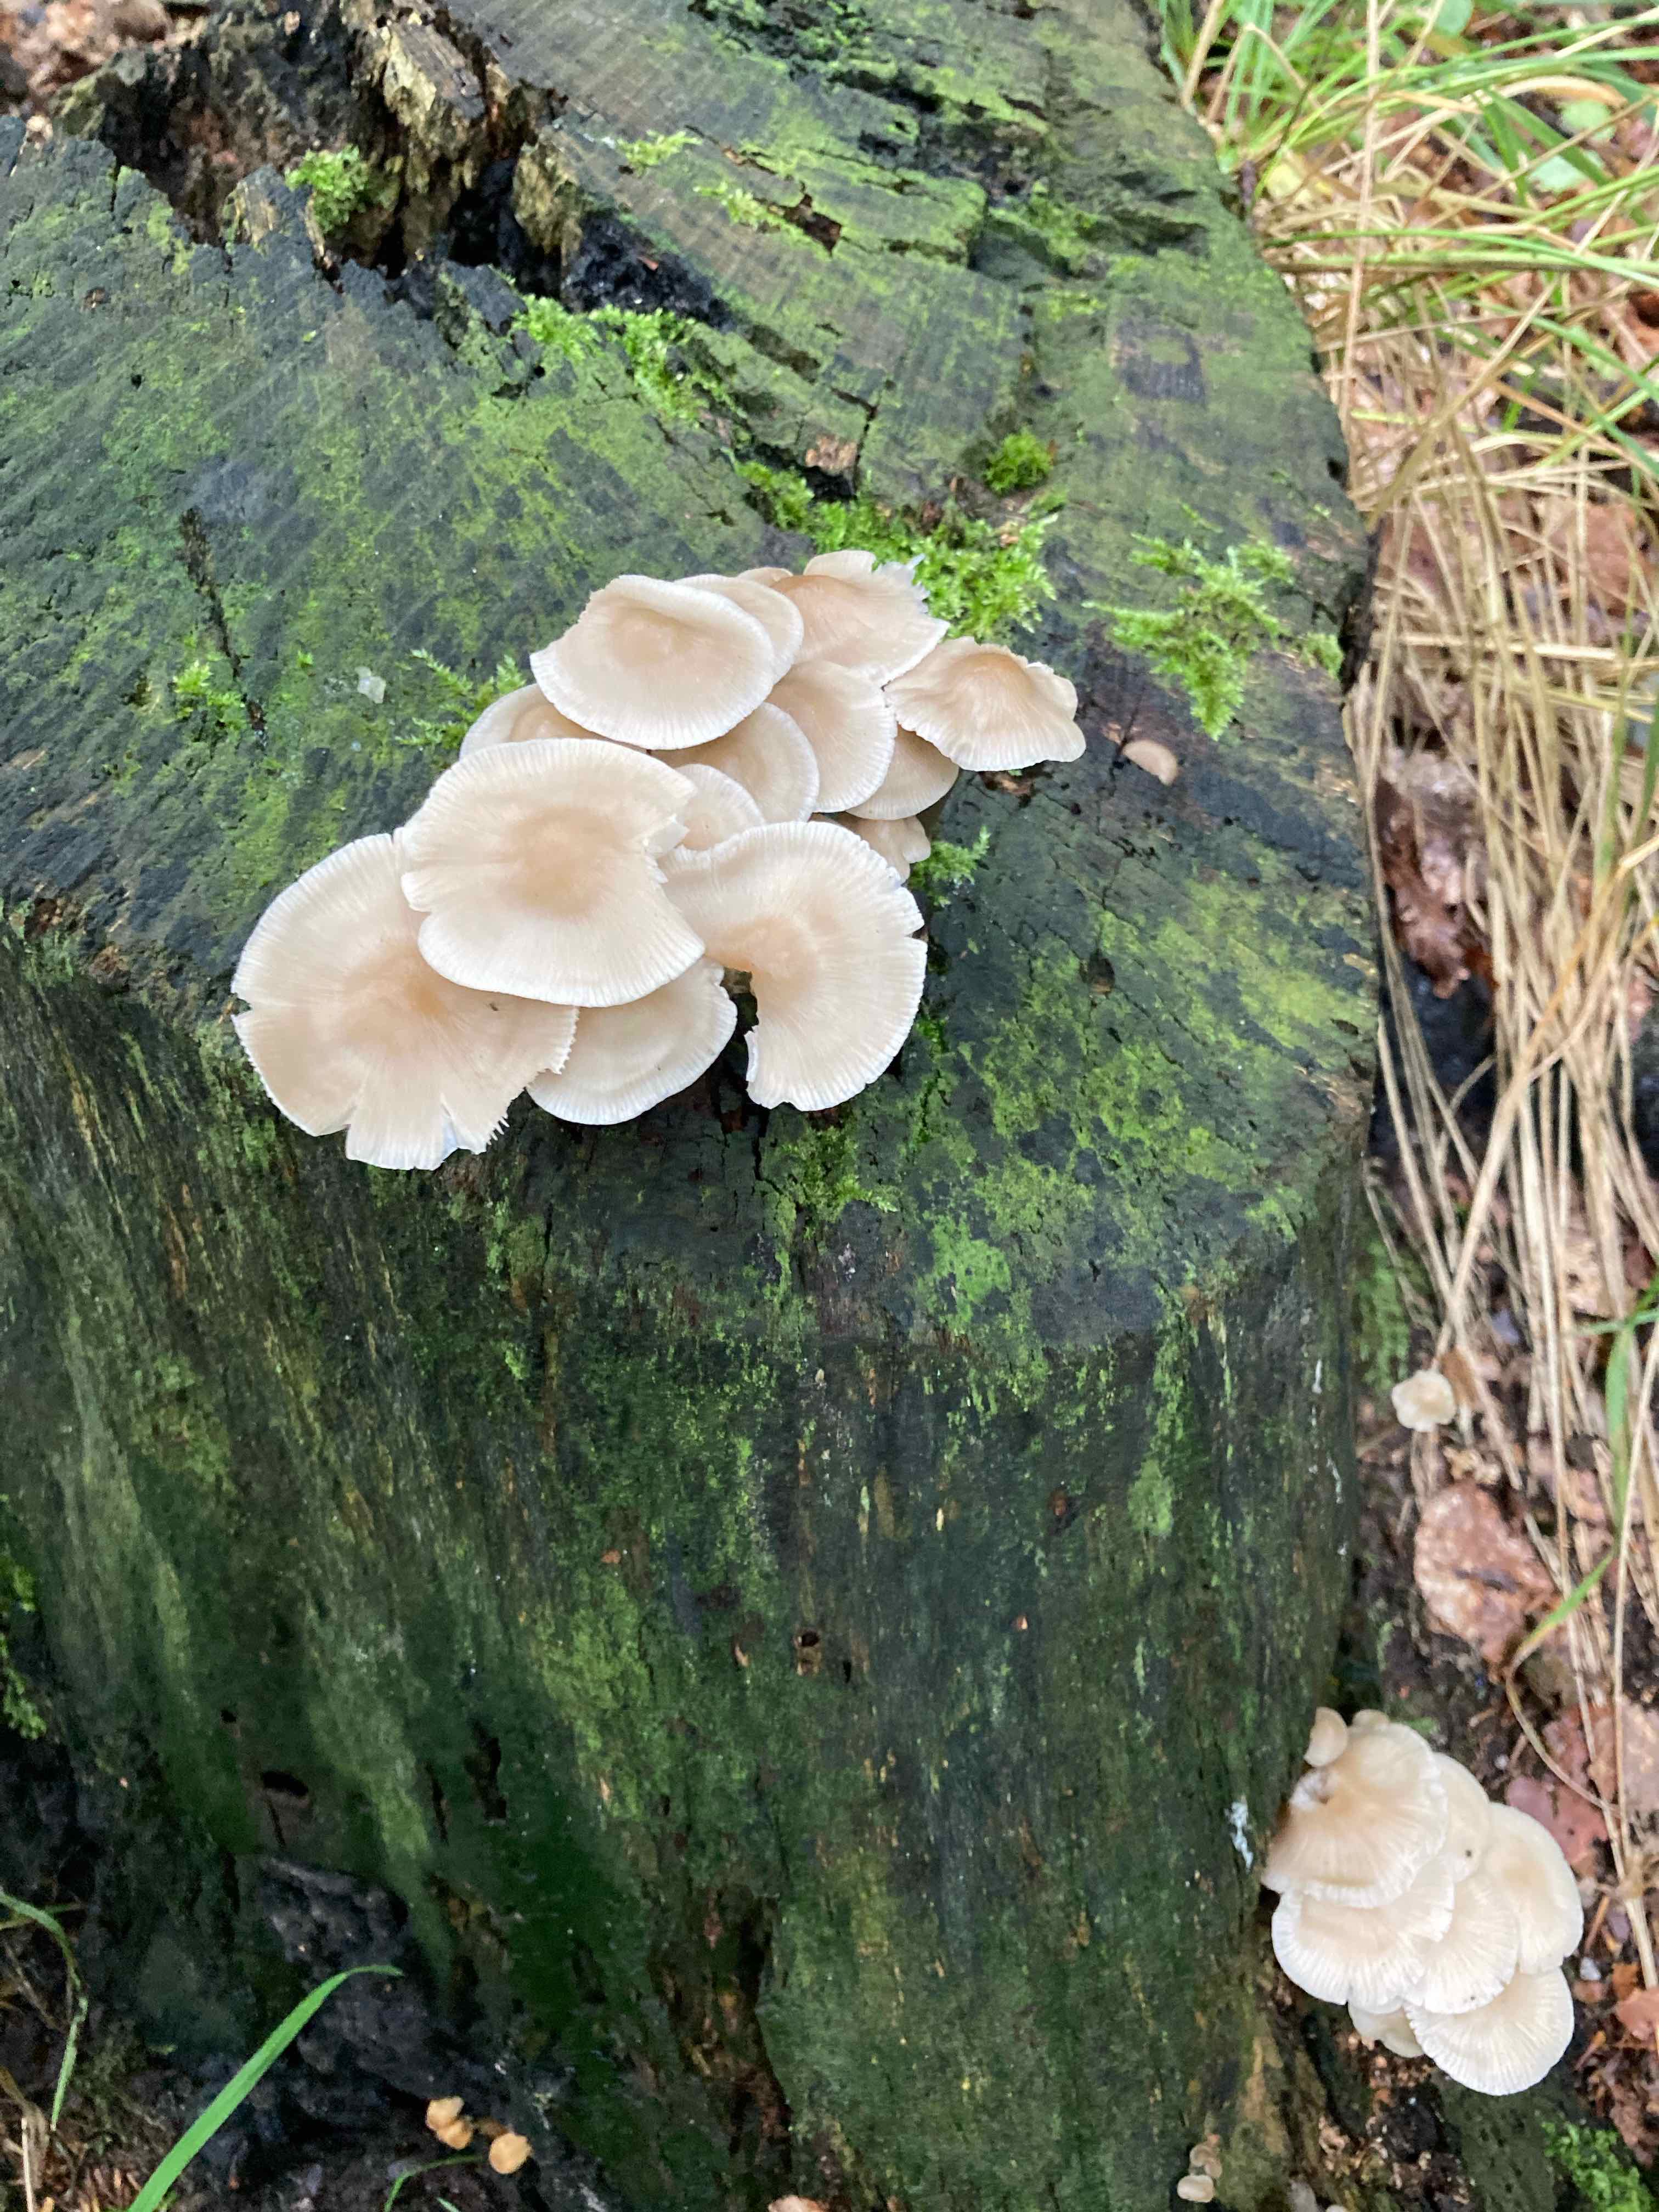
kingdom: Fungi
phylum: Basidiomycota
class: Agaricomycetes
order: Agaricales
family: Mycenaceae
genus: Mycena
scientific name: Mycena galericulata
